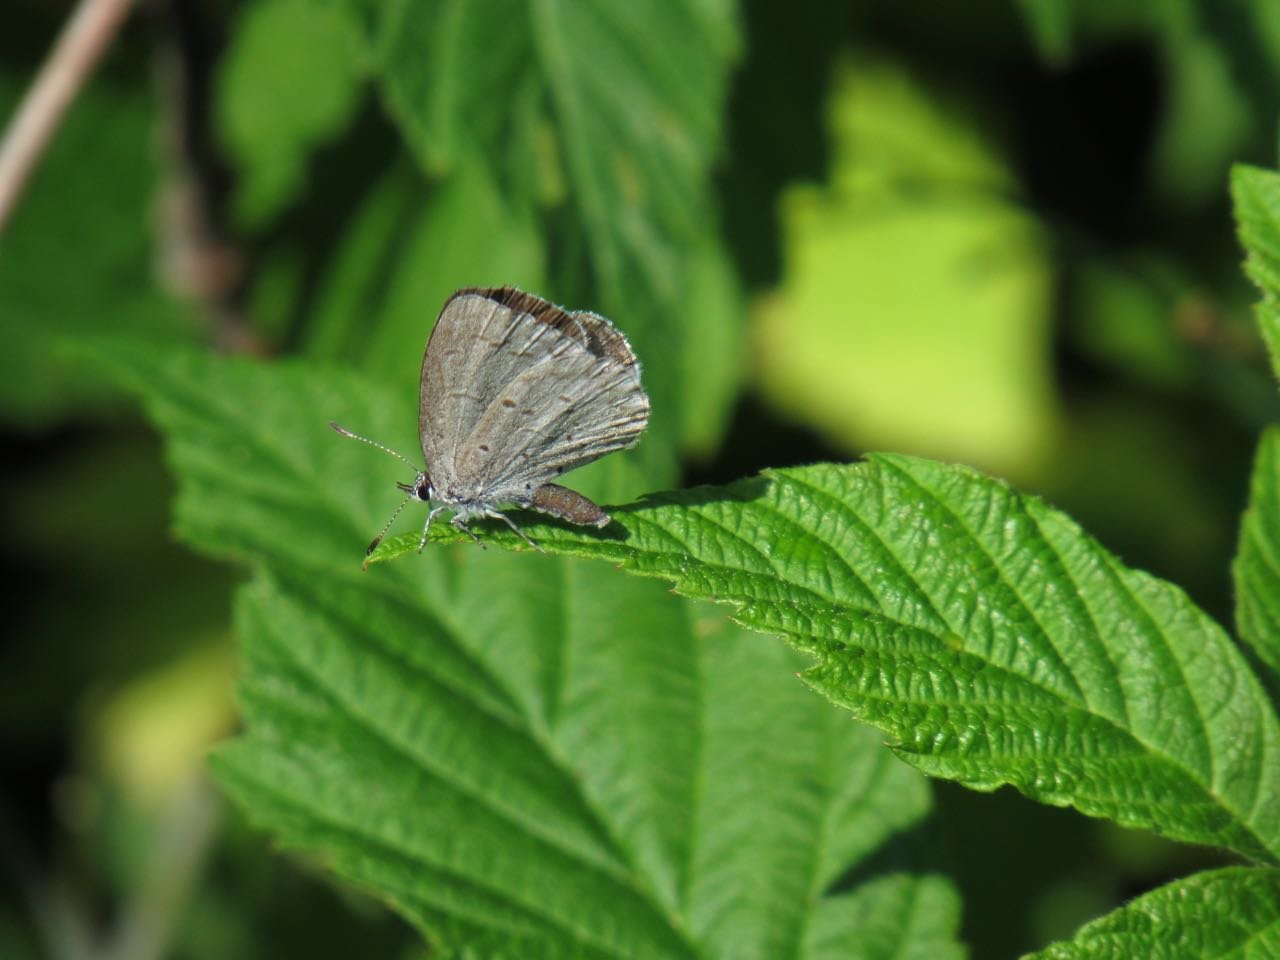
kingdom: Animalia
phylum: Arthropoda
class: Insecta
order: Lepidoptera
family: Lycaenidae
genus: Celastrina
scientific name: Celastrina
